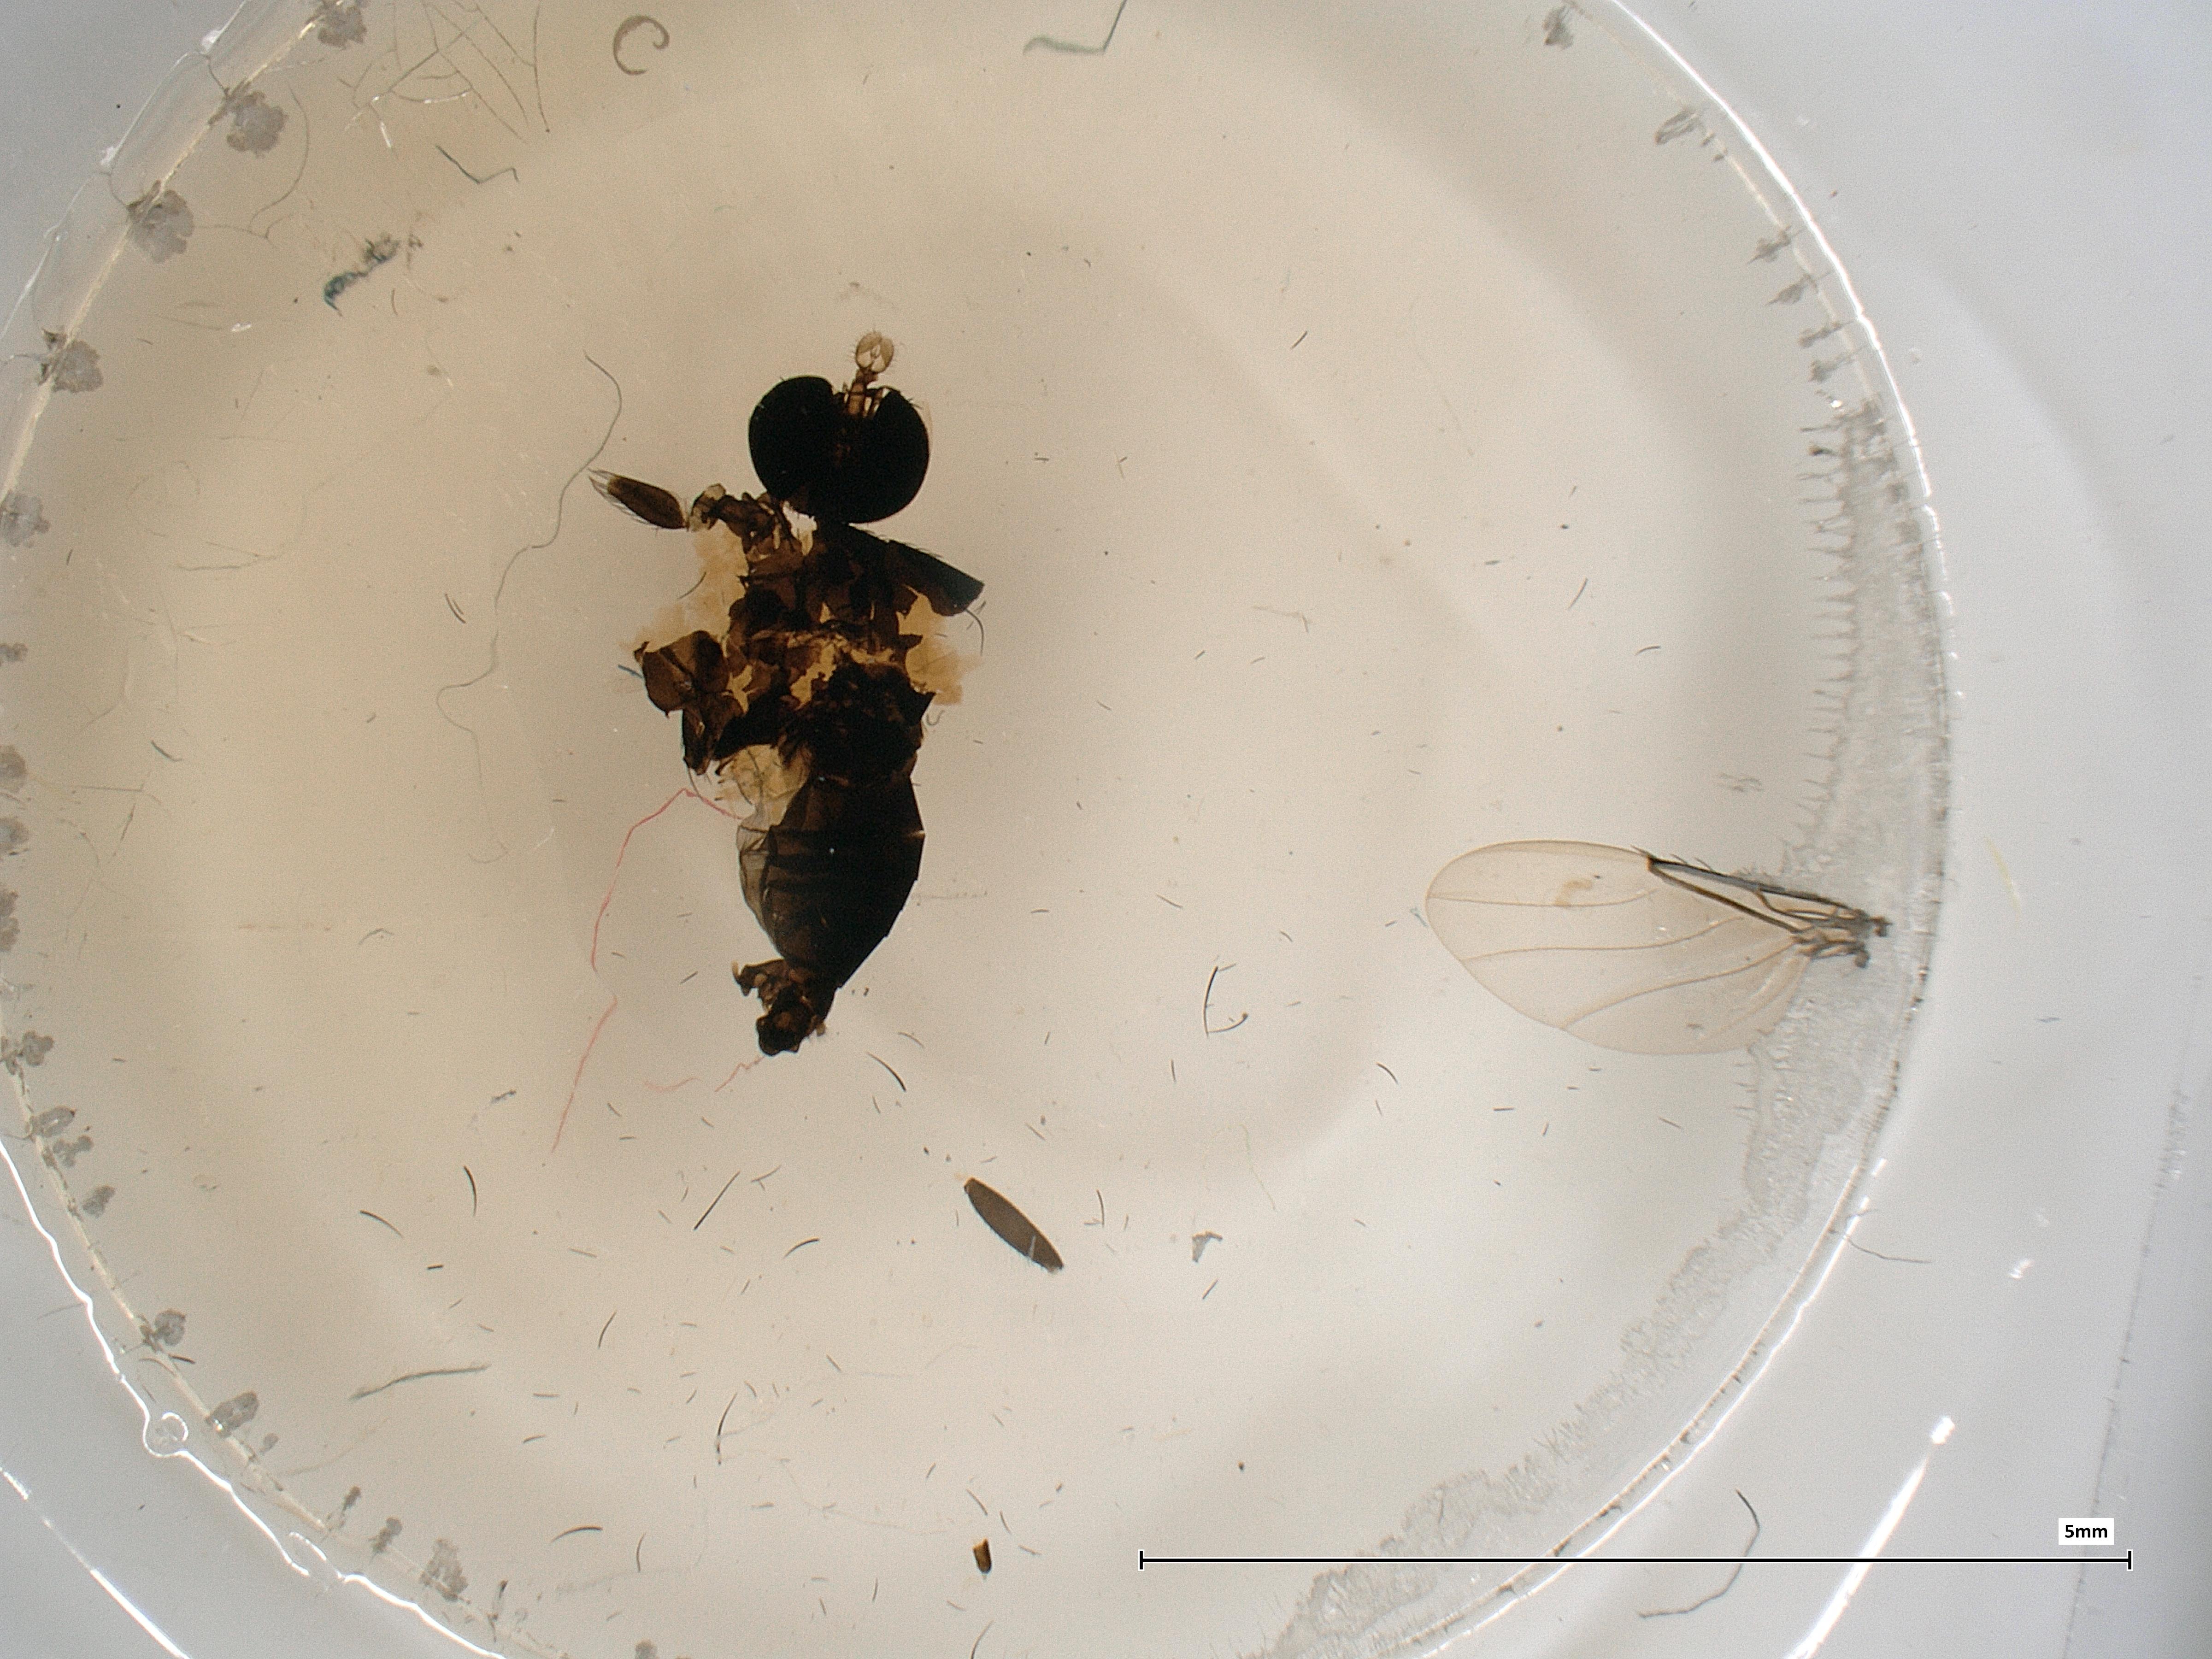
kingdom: Animalia
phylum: Arthropoda
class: Insecta
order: Diptera
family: Phoridae
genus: Phora
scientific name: Phora tincta
